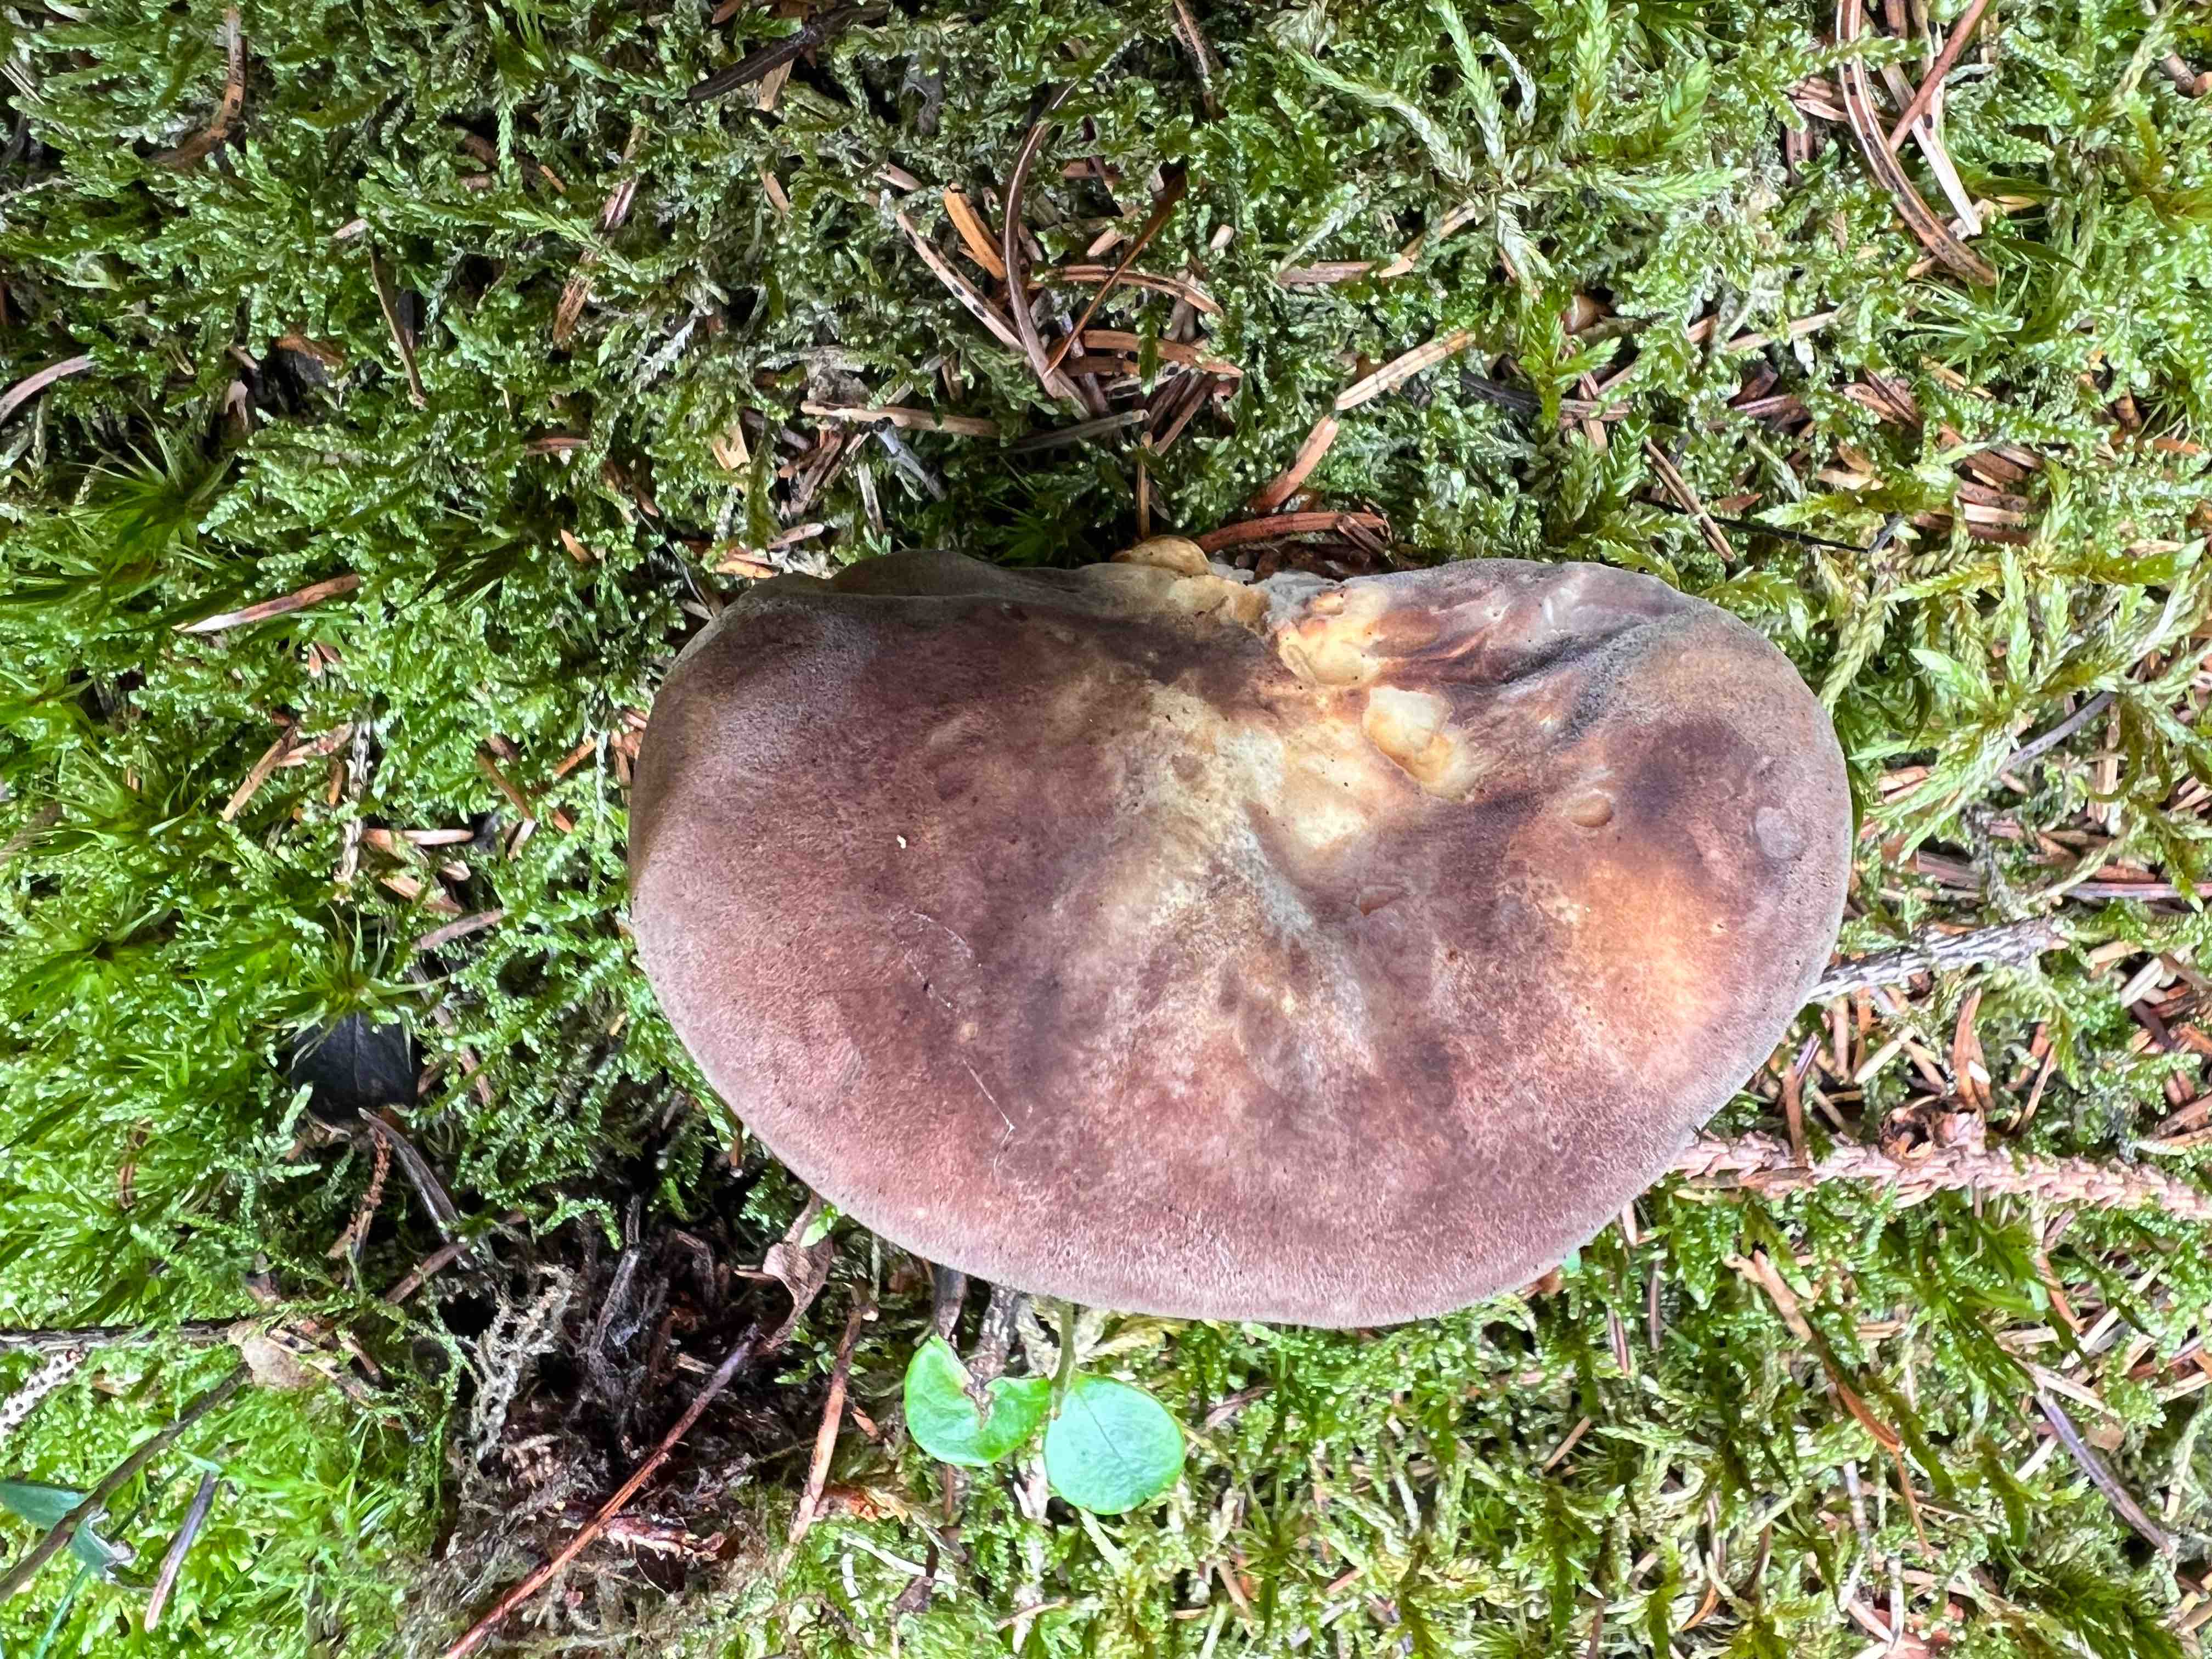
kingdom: Fungi
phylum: Basidiomycota
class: Agaricomycetes
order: Boletales
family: Tapinellaceae
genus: Tapinella
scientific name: Tapinella atrotomentosa
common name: sortfiltet viftesvamp
